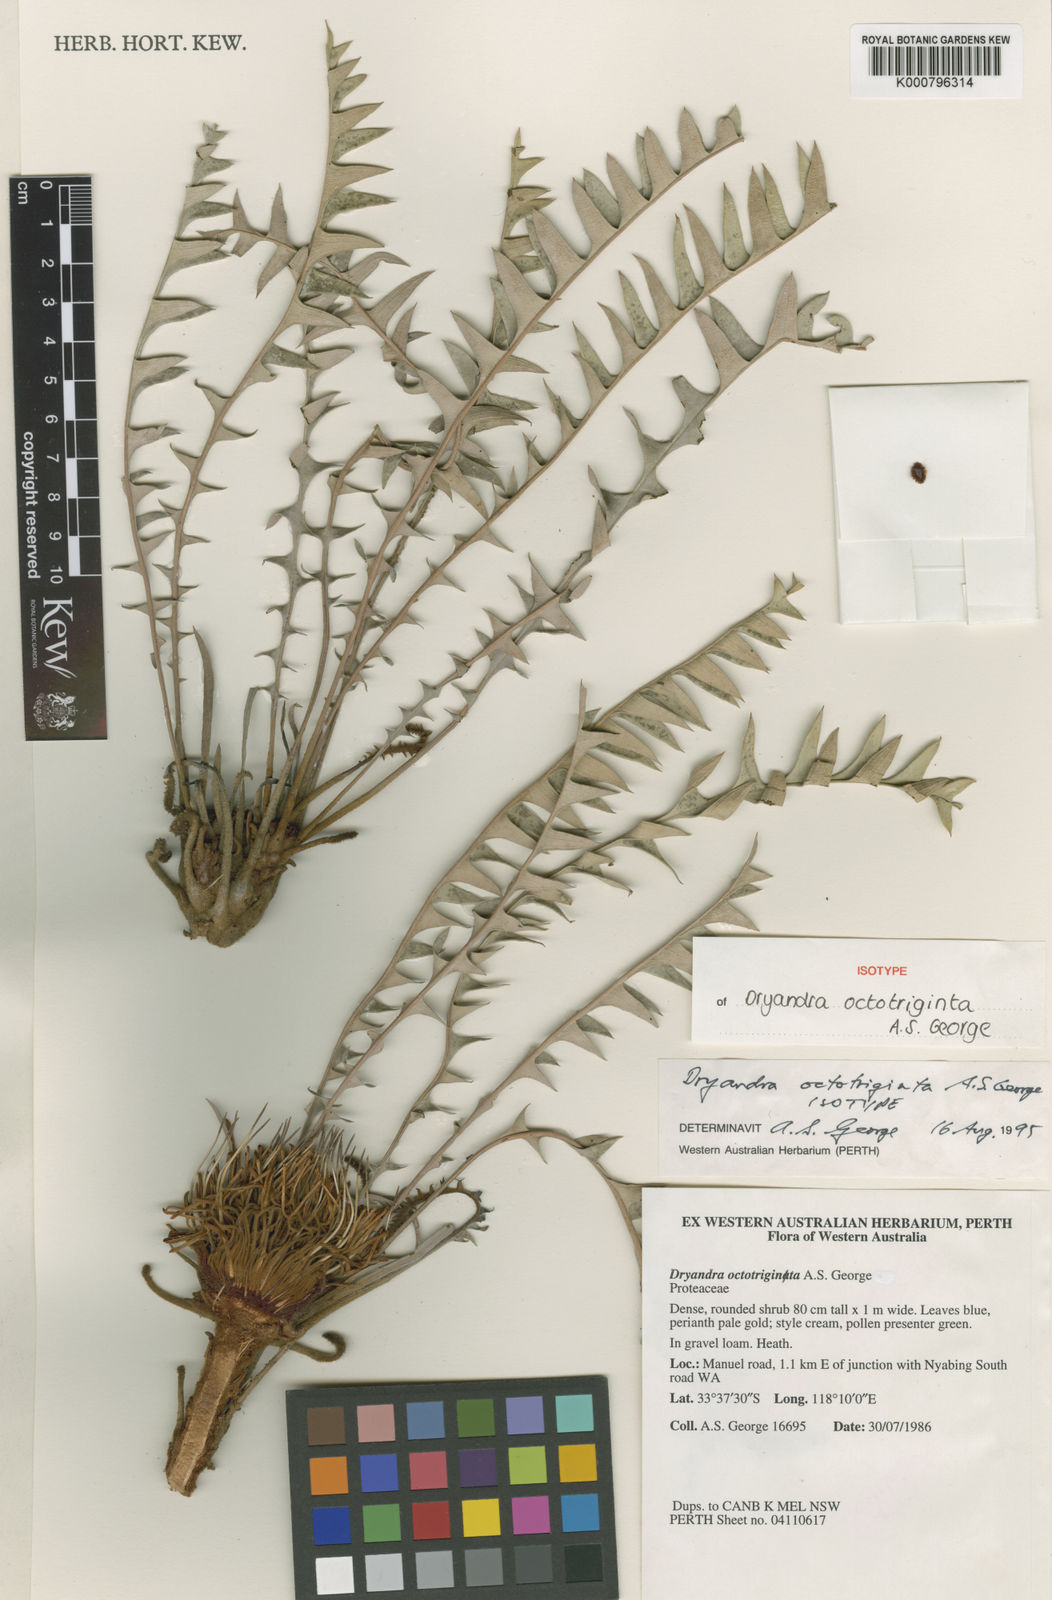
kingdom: Plantae
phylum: Tracheophyta
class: Magnoliopsida
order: Proteales
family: Proteaceae
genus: Banksia
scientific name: Banksia octotriginta
